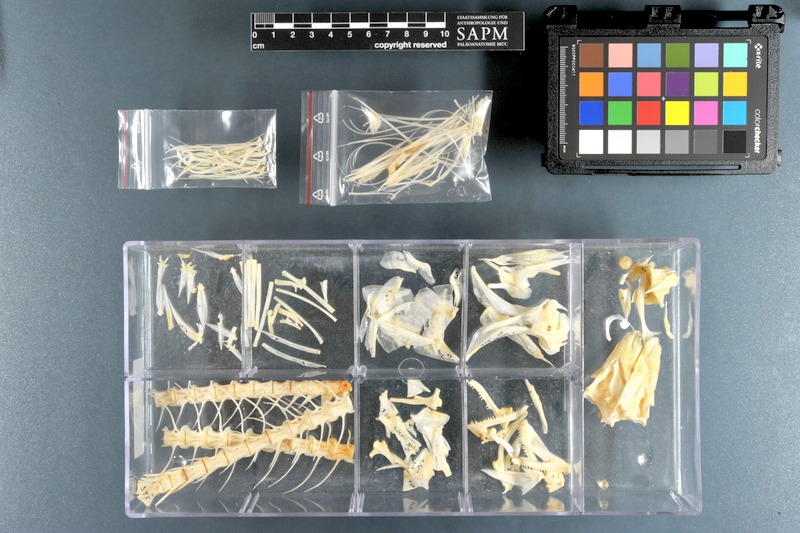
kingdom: Animalia
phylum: Chordata
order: Perciformes
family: Scombridae
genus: Scomberomorus
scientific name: Scomberomorus guttatus
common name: Spotted spanish mackerel
